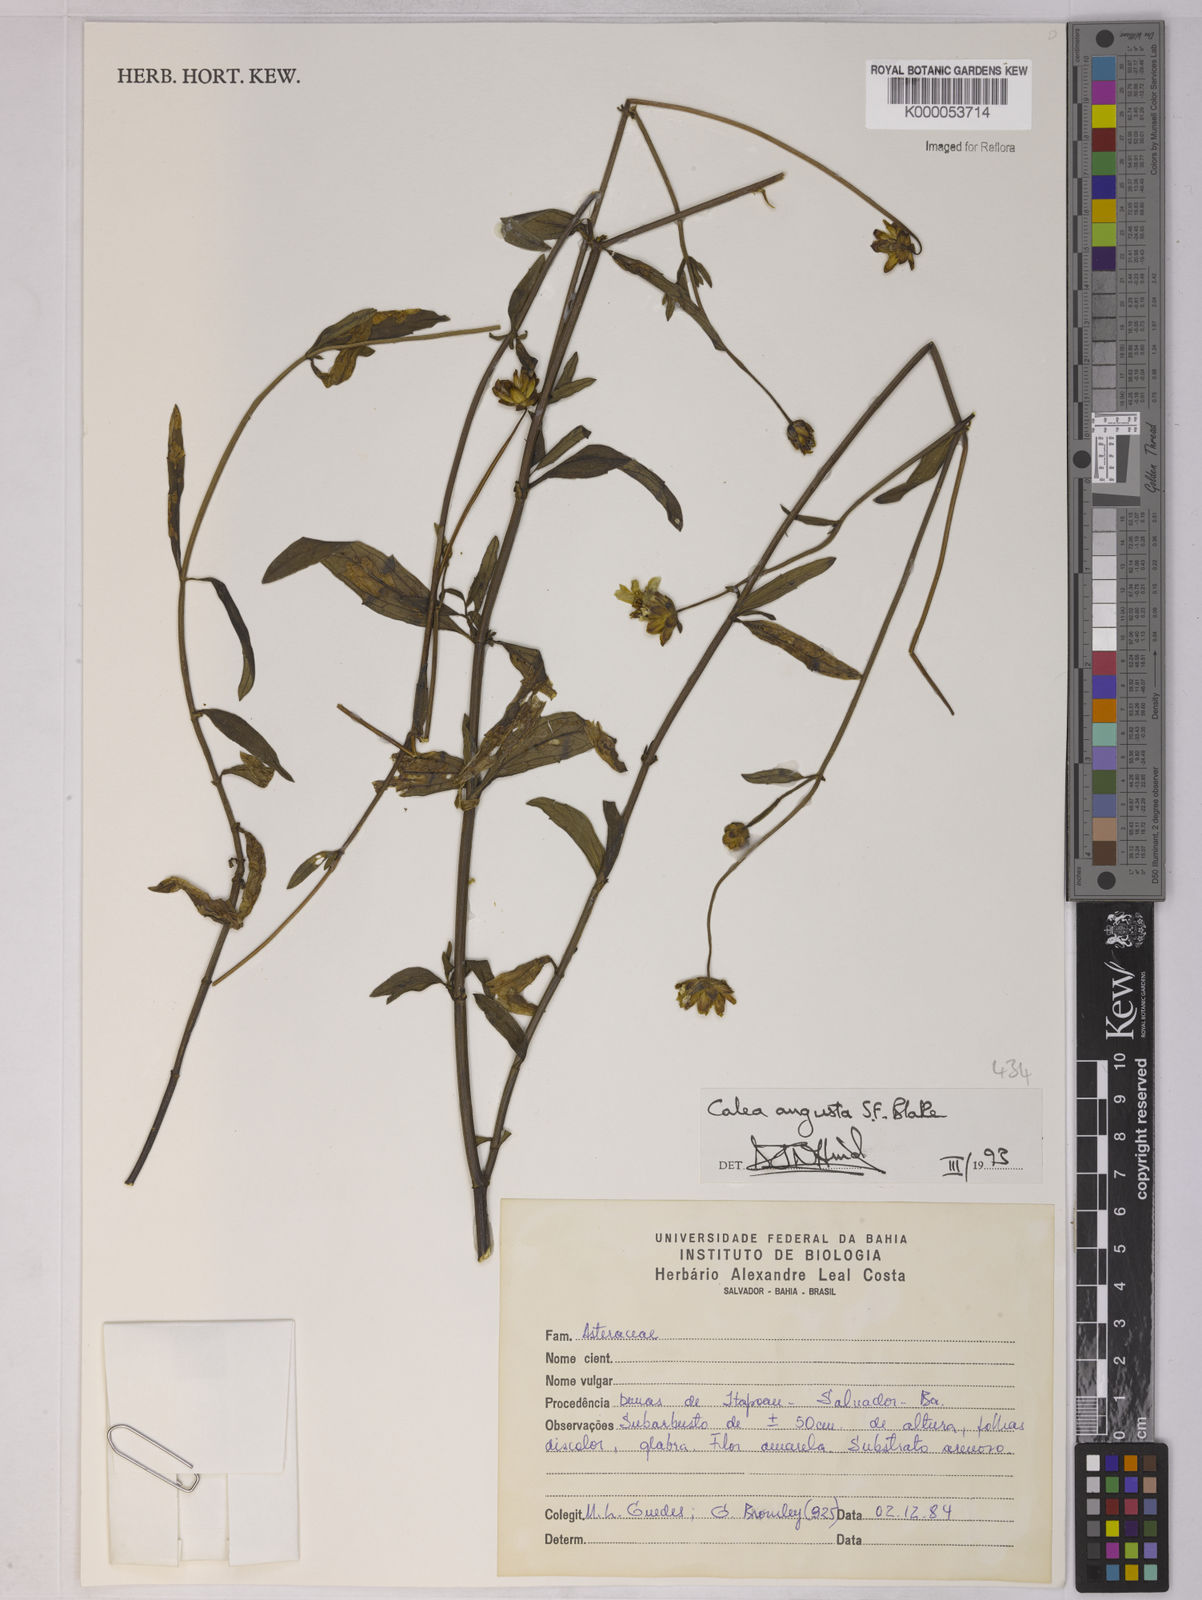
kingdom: Plantae
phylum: Tracheophyta
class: Magnoliopsida
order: Asterales
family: Asteraceae
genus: Calea
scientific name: Calea angusta
